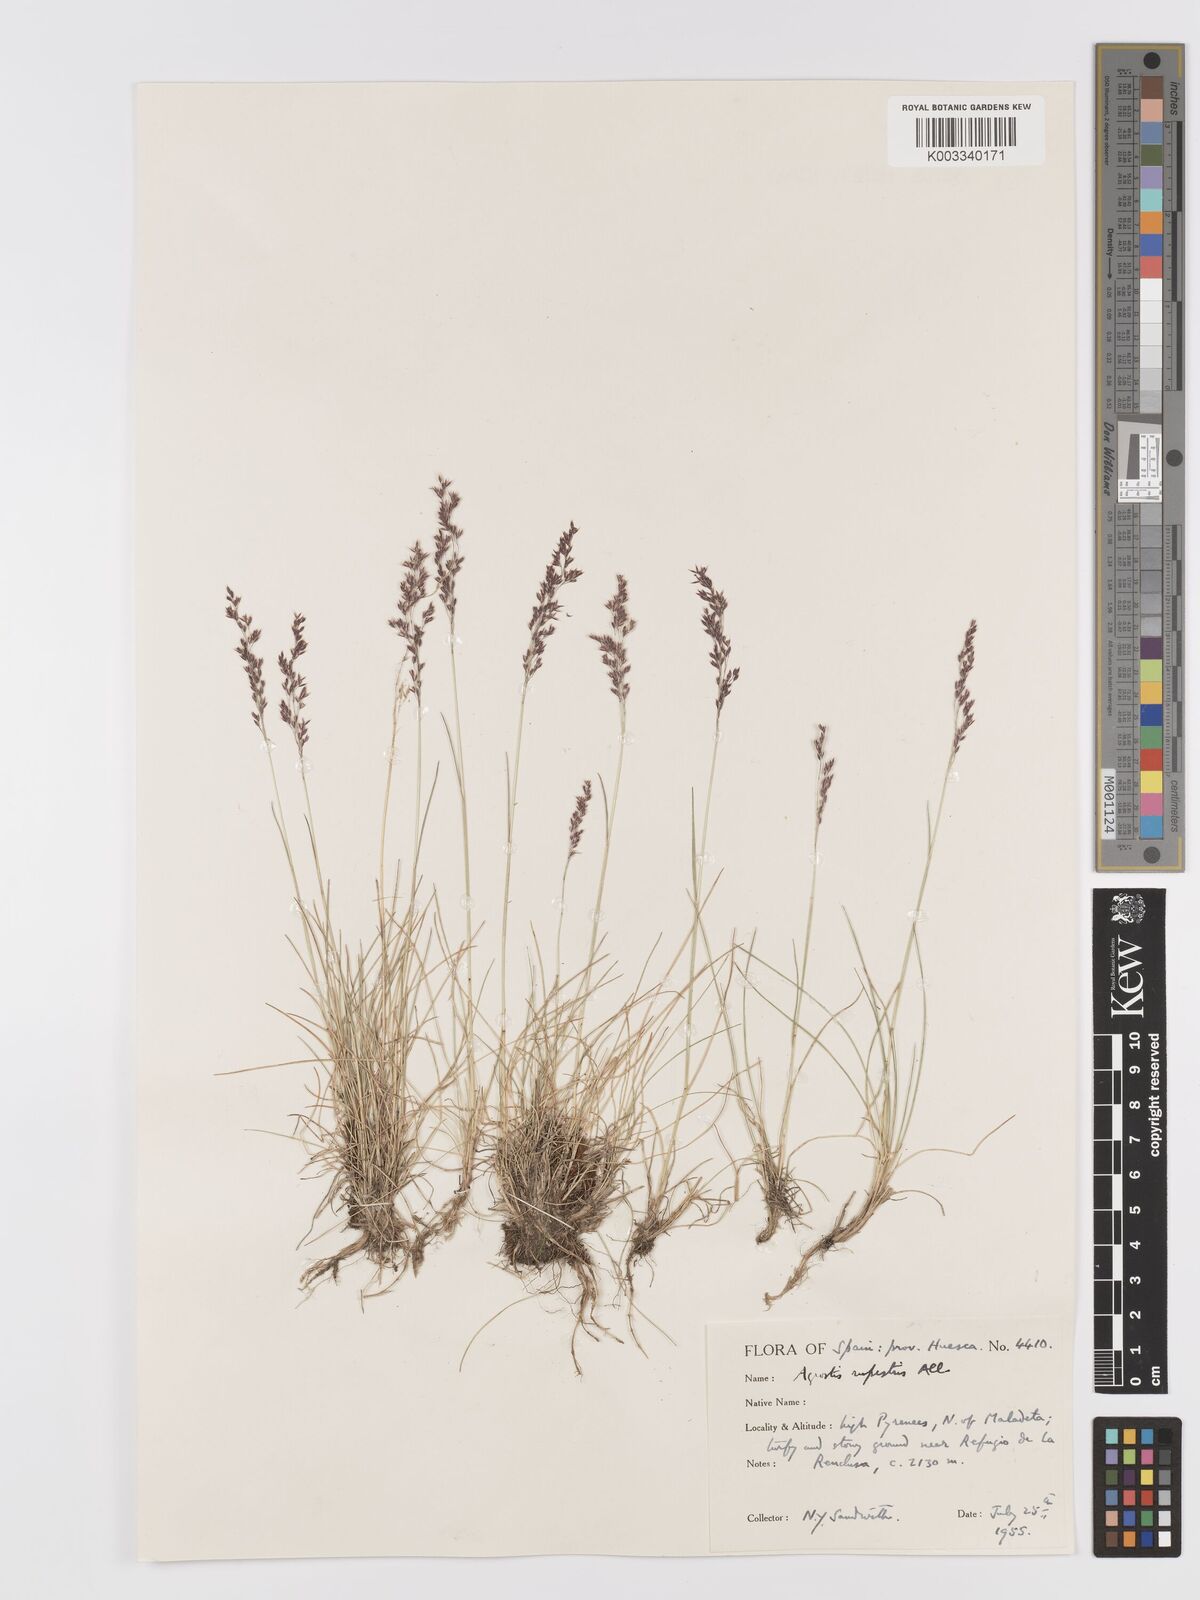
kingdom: Plantae
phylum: Tracheophyta
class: Liliopsida
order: Poales
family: Poaceae
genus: Agrostis
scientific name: Agrostis rupestris
